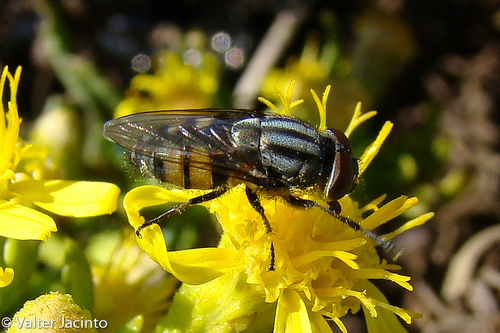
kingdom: Animalia
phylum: Arthropoda
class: Insecta
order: Diptera
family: Calliphoridae
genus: Stomorhina
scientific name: Stomorhina lunata
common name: Locust blowfly
